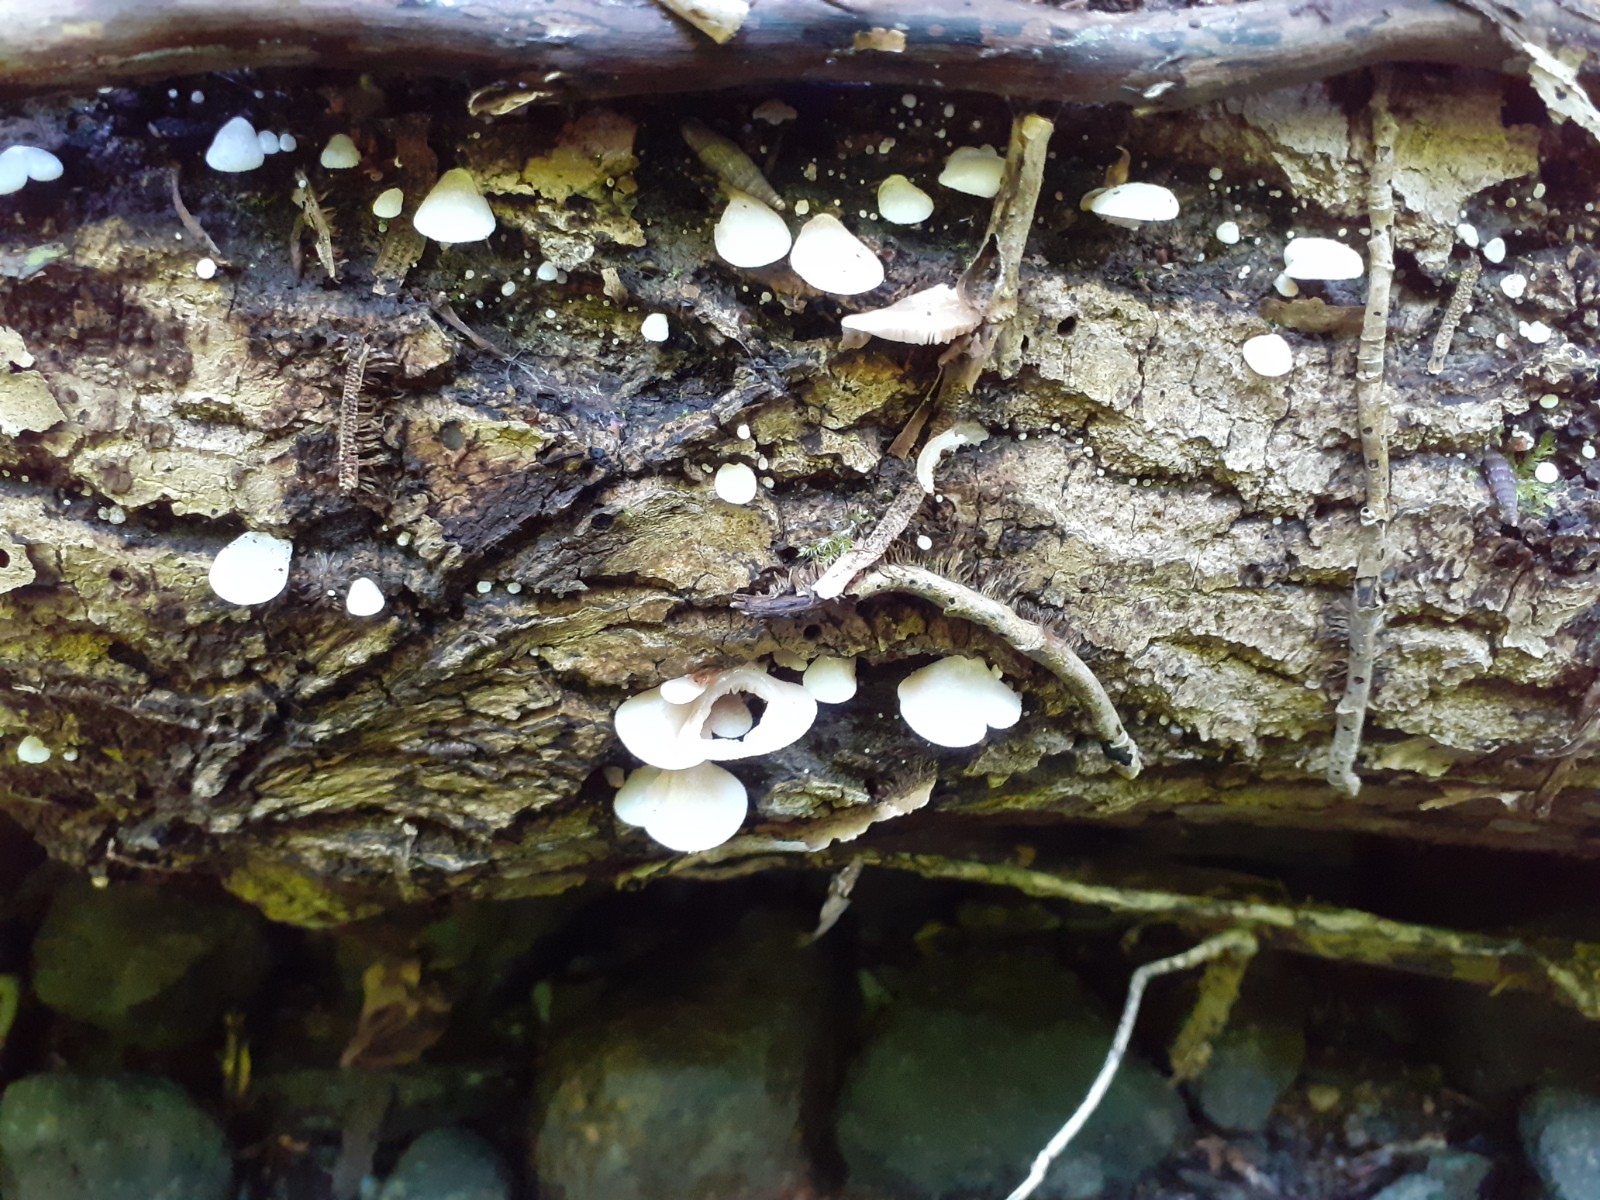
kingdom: Fungi
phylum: Basidiomycota
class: Agaricomycetes
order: Agaricales
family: Crepidotaceae
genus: Crepidotus
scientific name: Crepidotus mollis
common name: blød muslingesvamp
